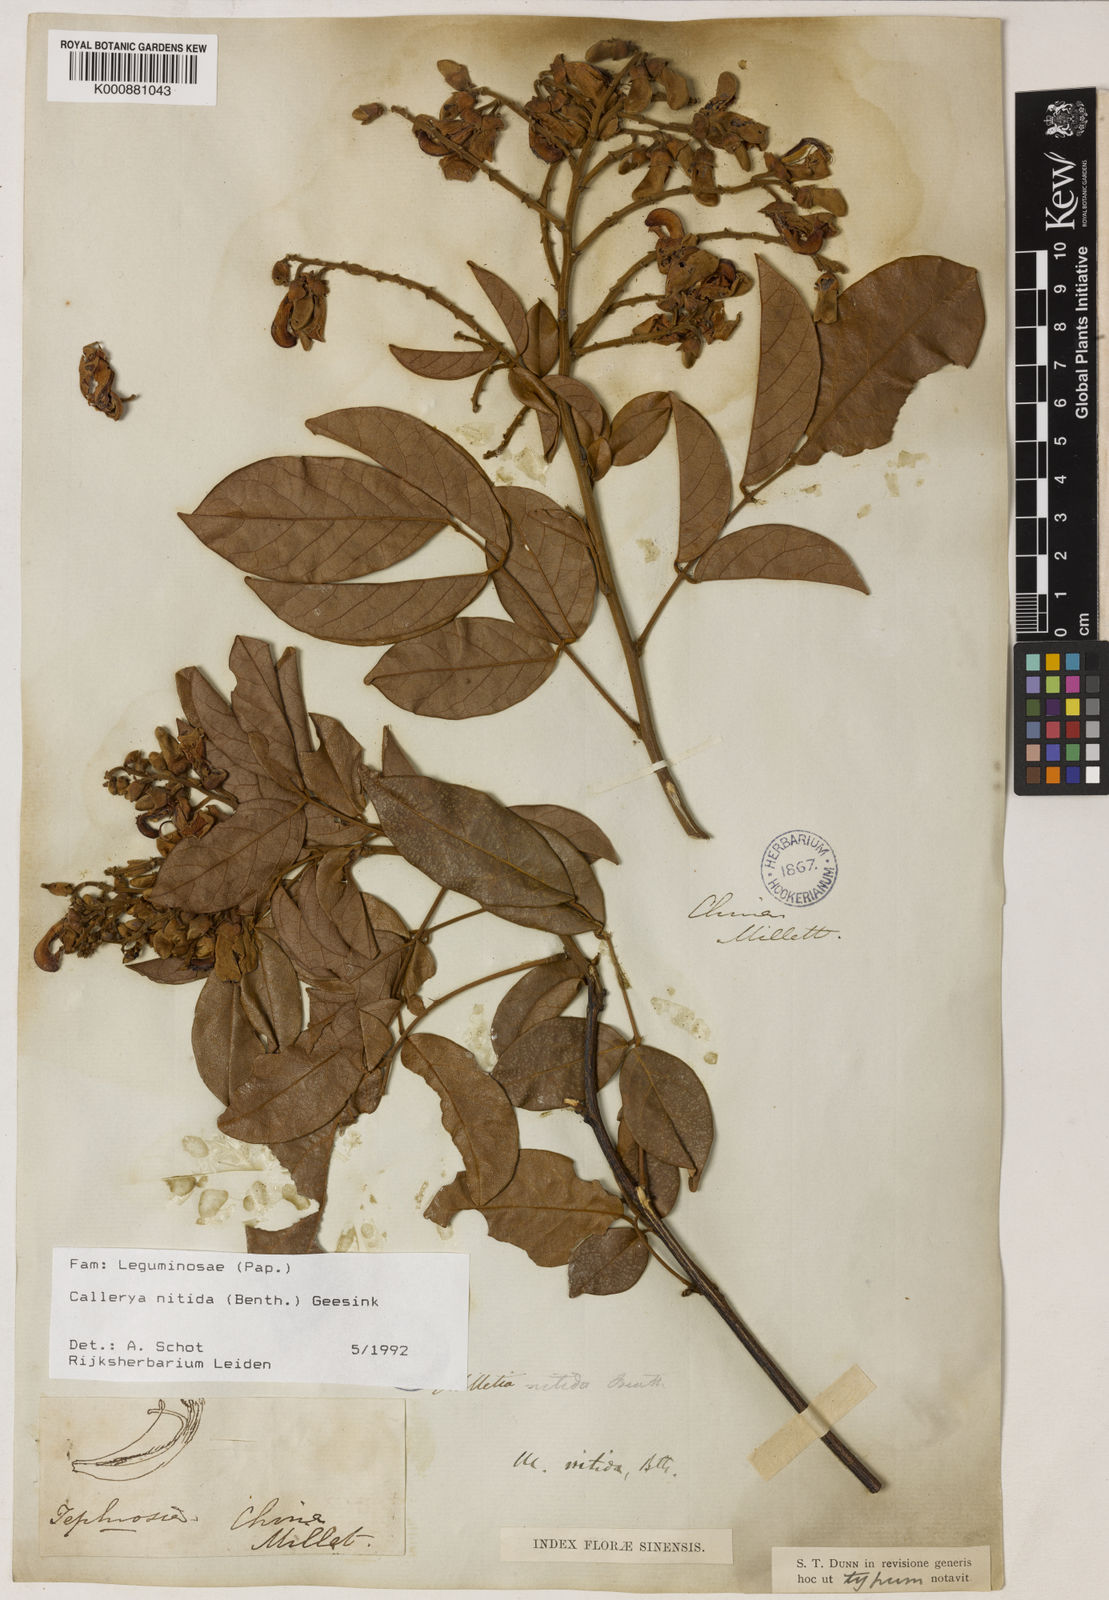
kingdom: Plantae
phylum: Tracheophyta
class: Magnoliopsida
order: Fabales
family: Fabaceae
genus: Callerya
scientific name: Callerya nitida
